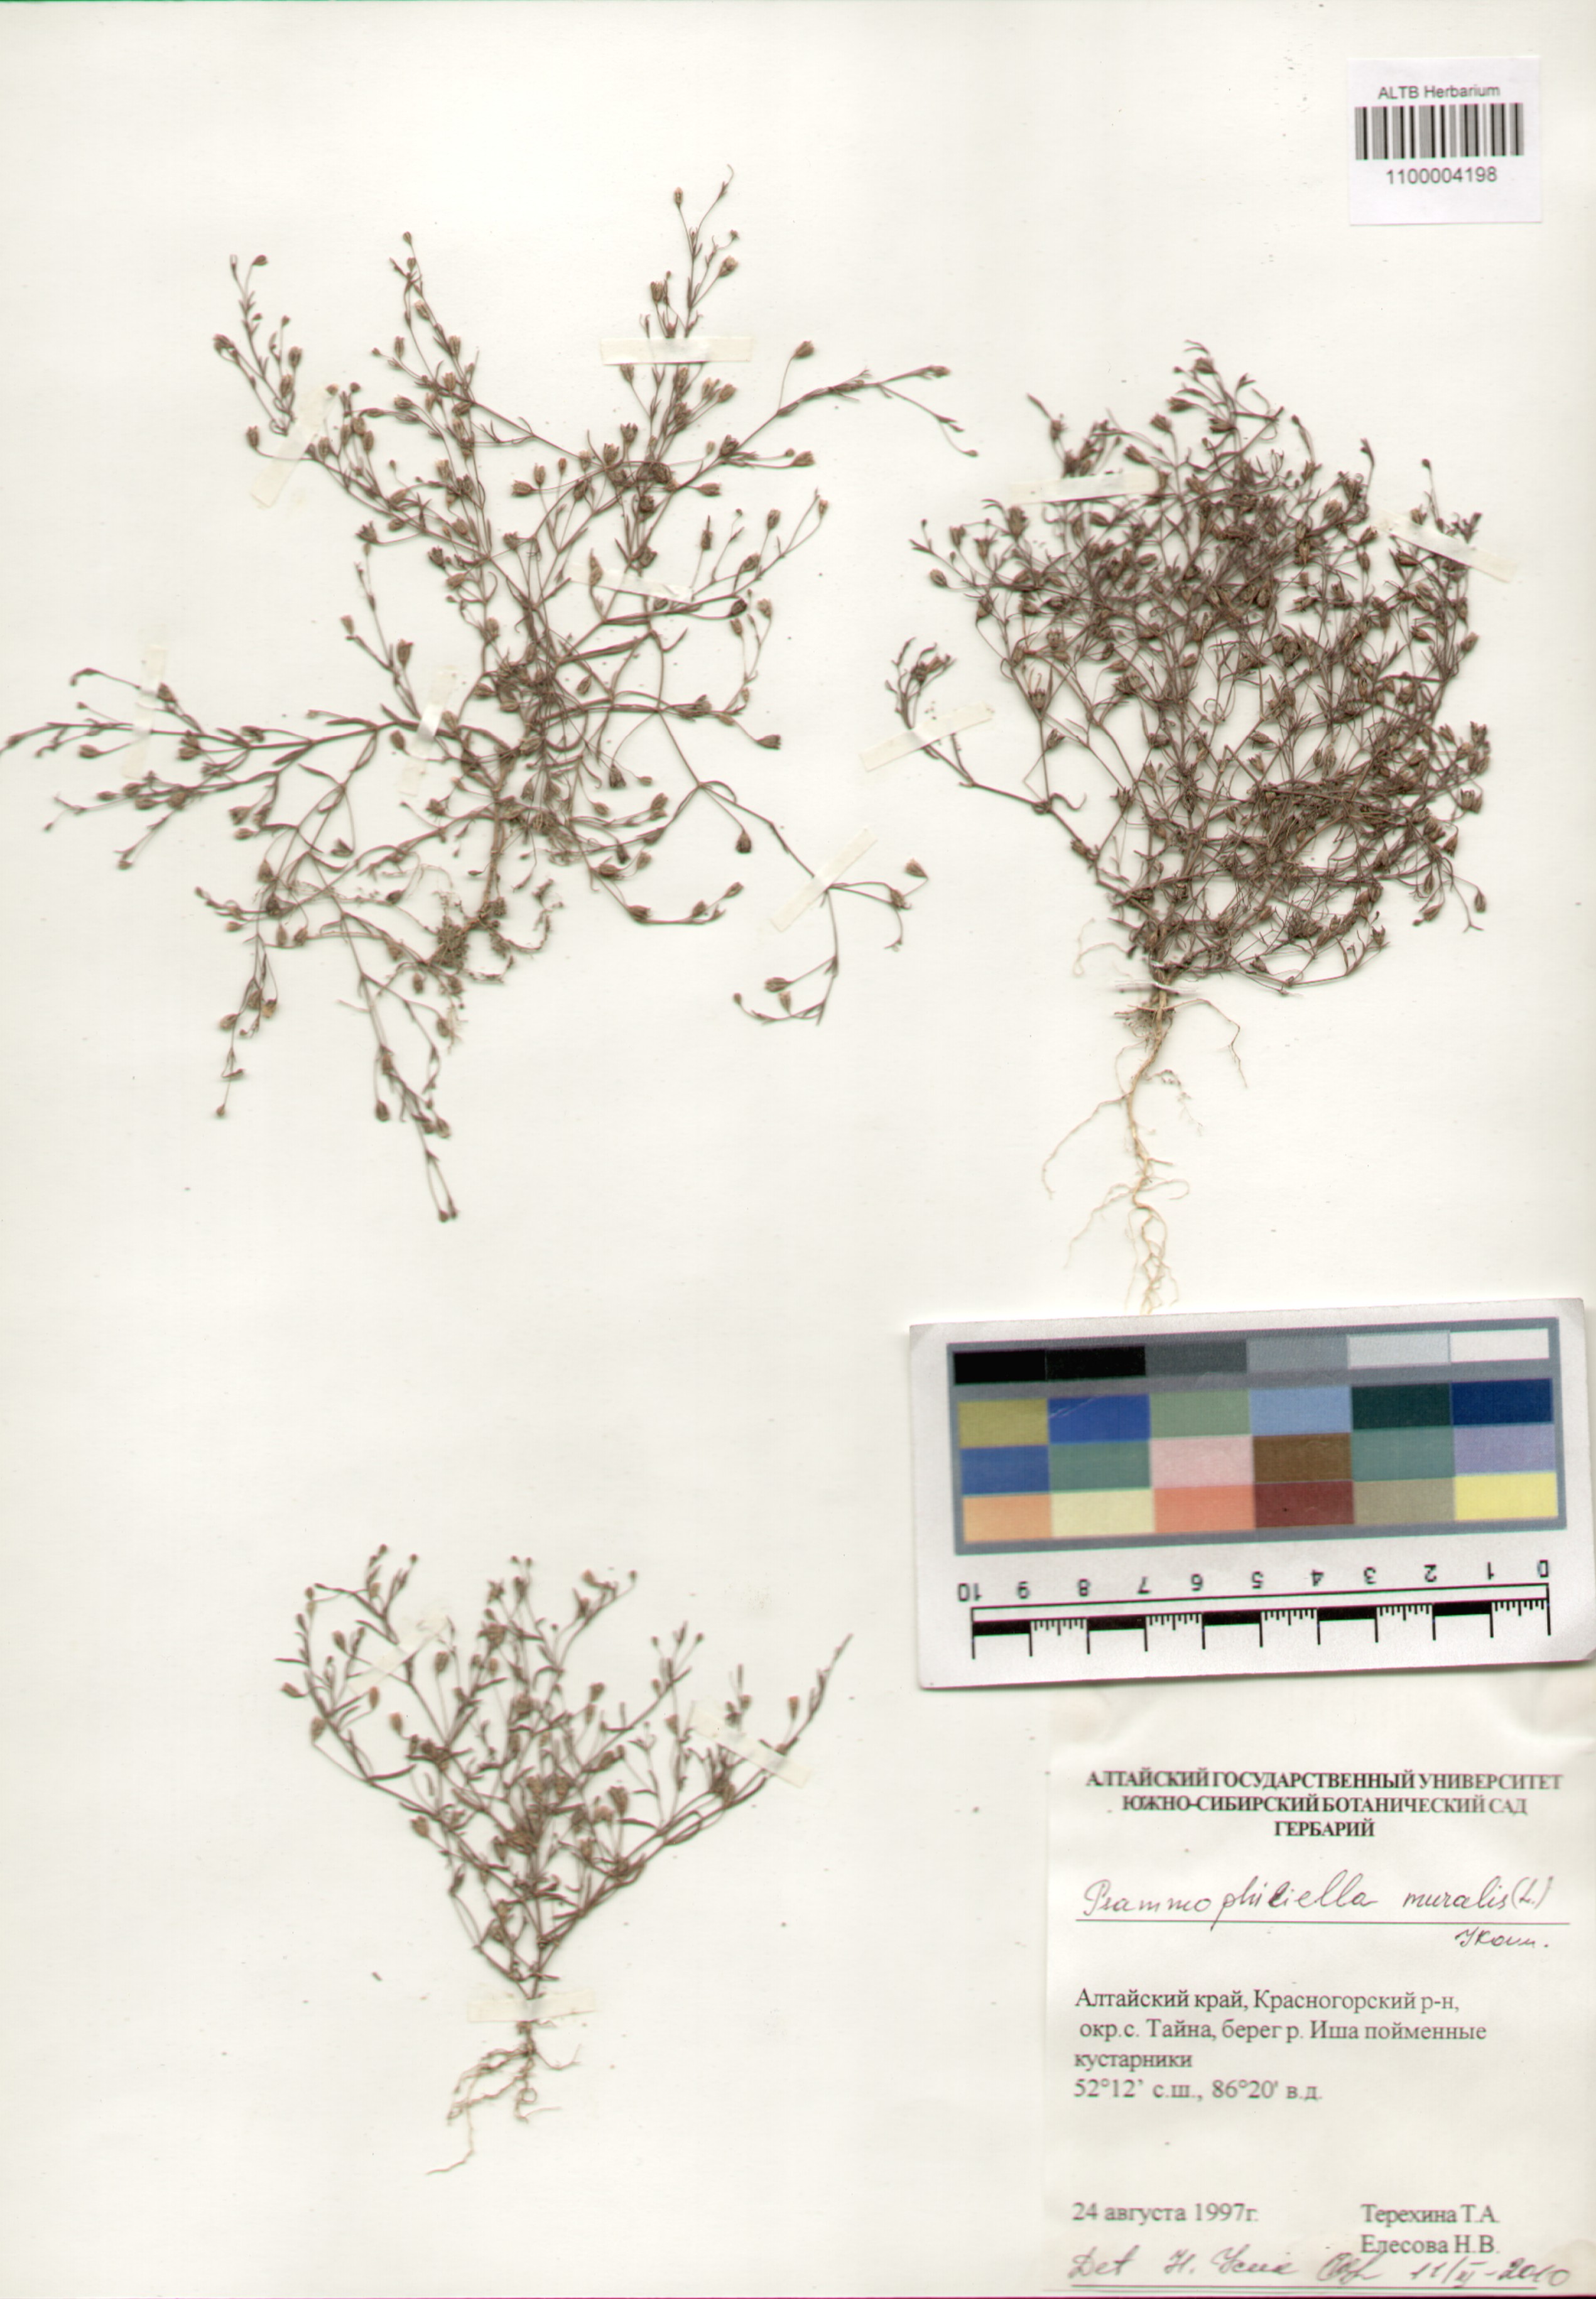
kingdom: Plantae
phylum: Tracheophyta
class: Magnoliopsida
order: Caryophyllales
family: Caryophyllaceae
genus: Psammophiliella
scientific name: Psammophiliella muralis
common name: Cushion baby's-breath
